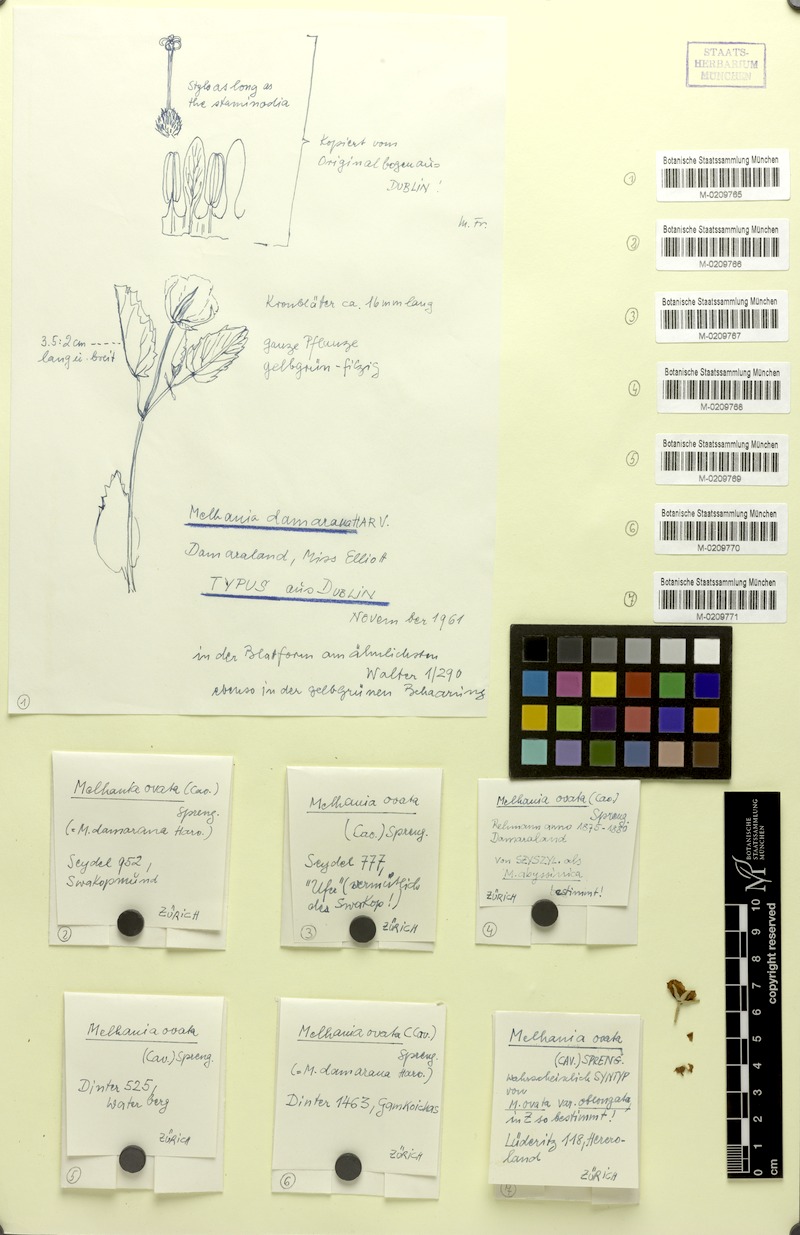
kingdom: Plantae
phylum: Tracheophyta
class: Magnoliopsida
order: Malvales
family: Malvaceae
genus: Melhania
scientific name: Melhania ovata
